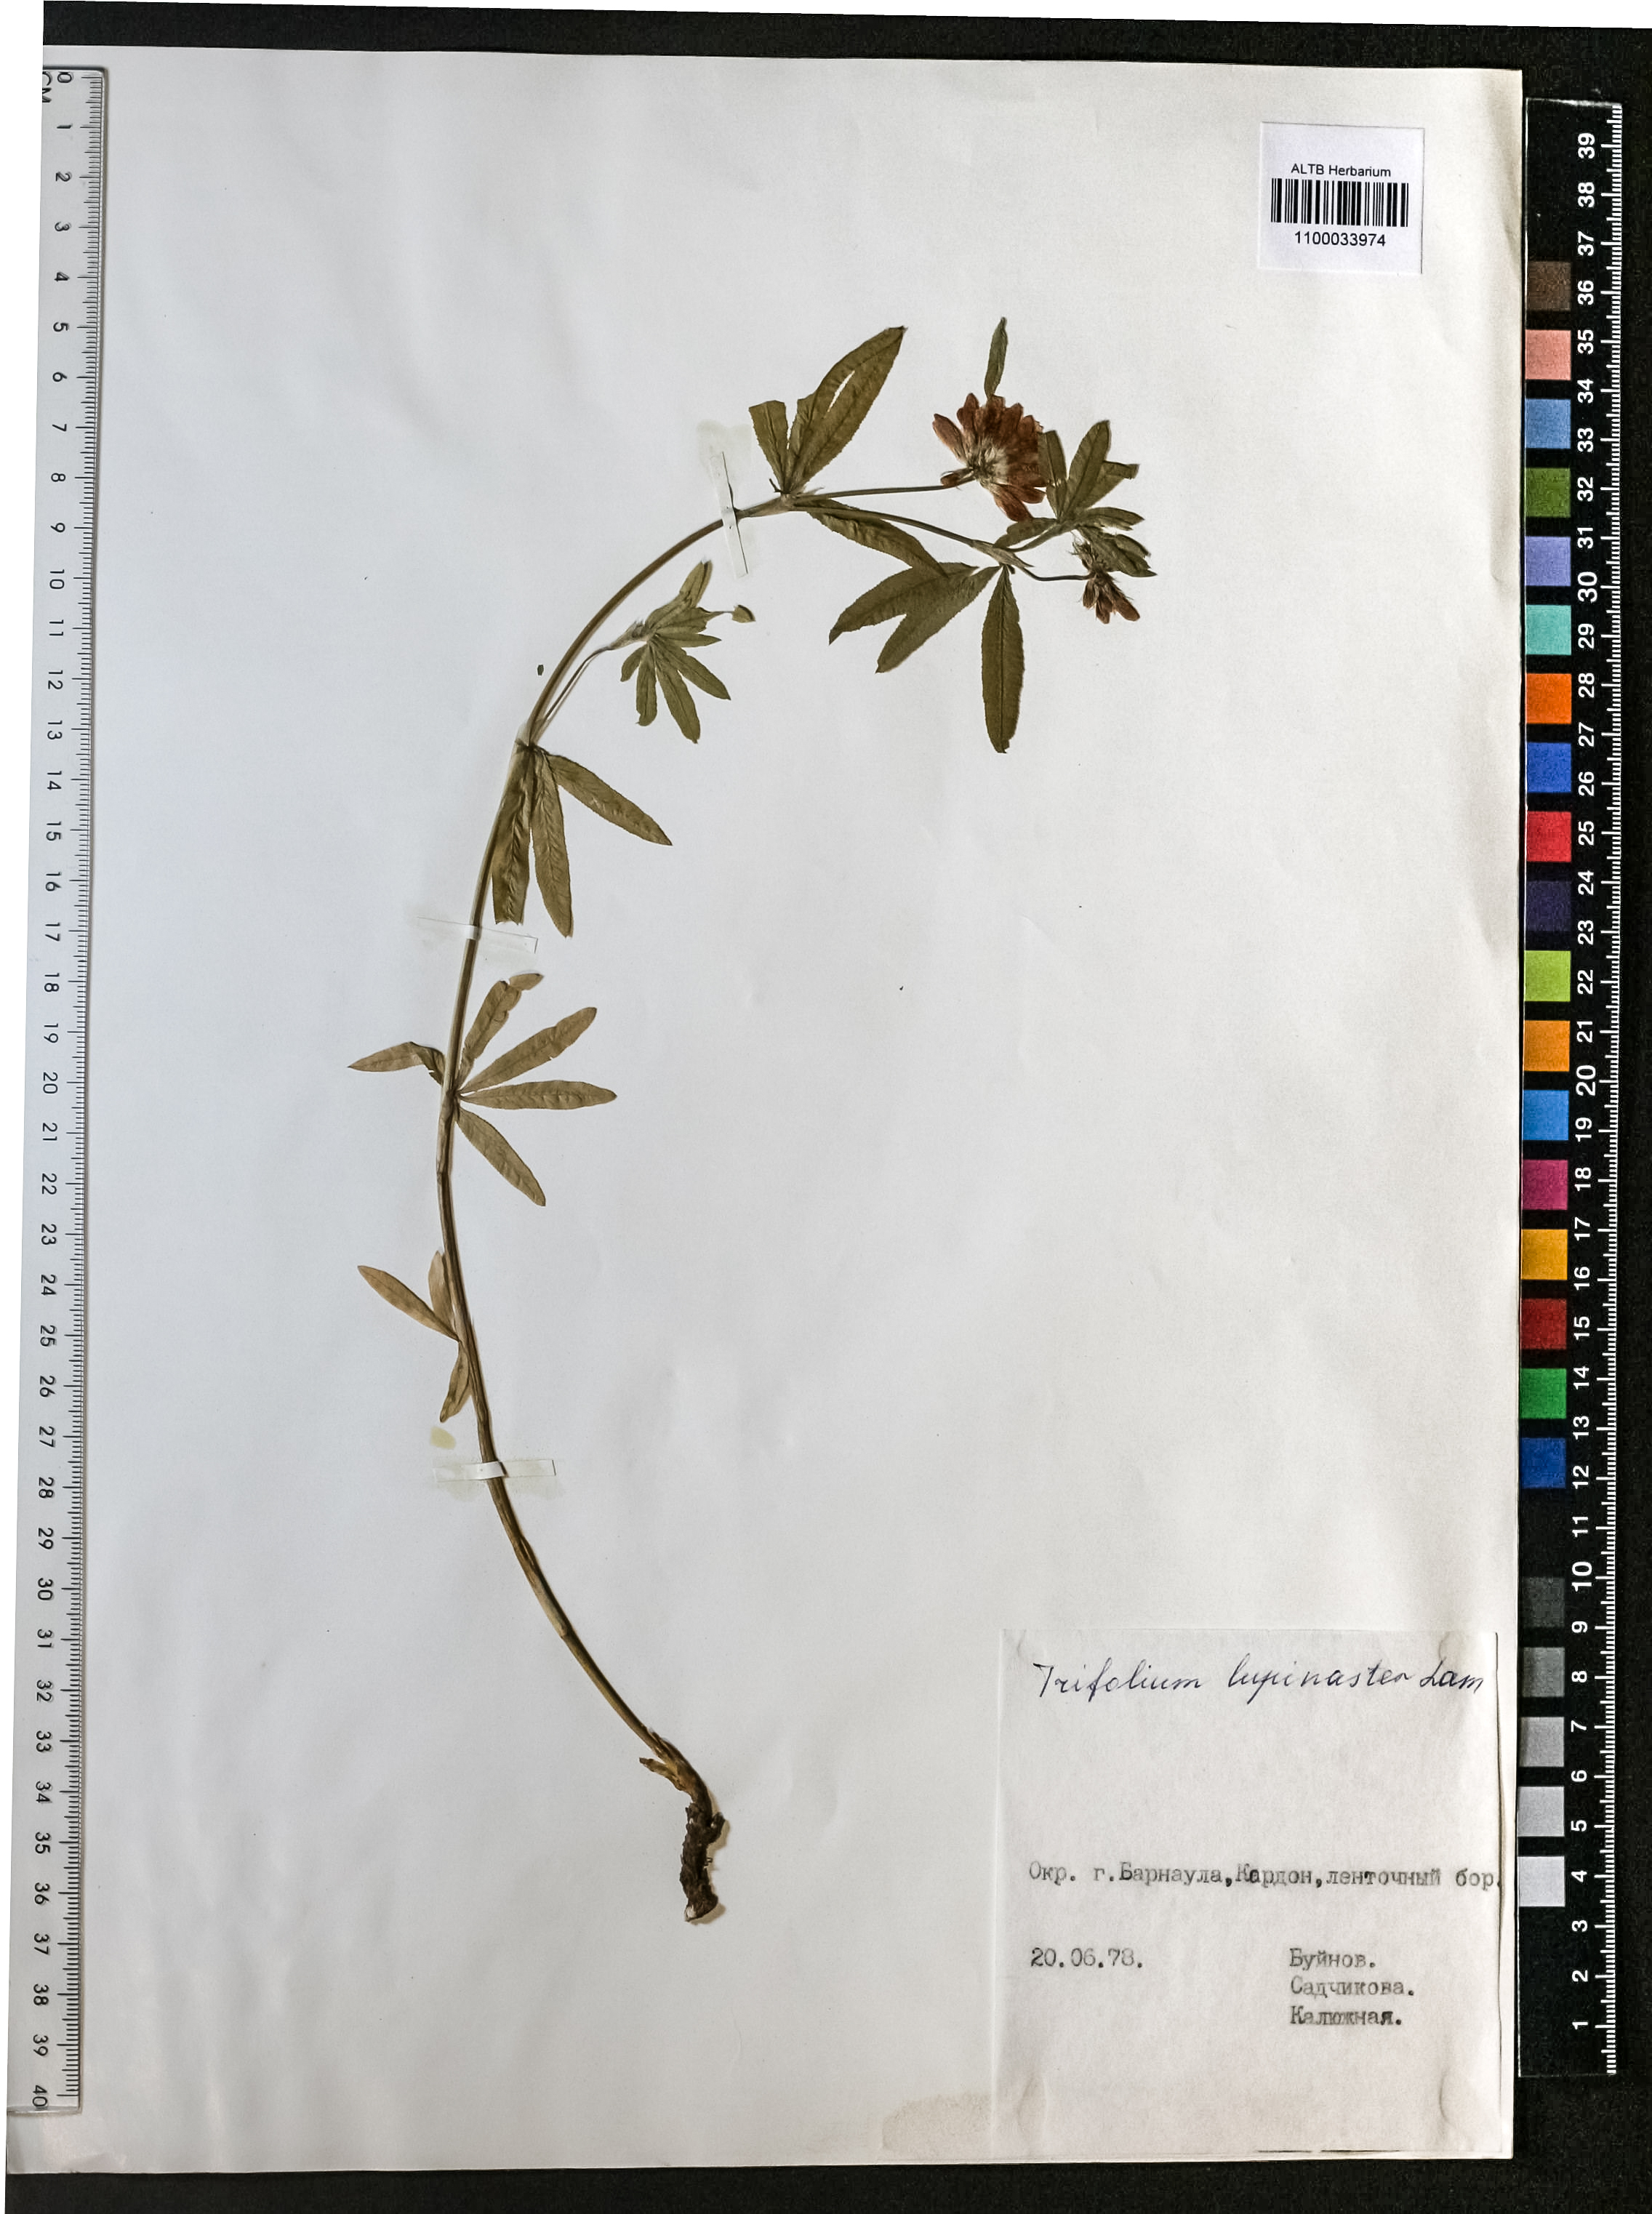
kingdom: Plantae
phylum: Tracheophyta
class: Magnoliopsida
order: Fabales
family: Fabaceae
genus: Trifolium
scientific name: Trifolium lupinaster
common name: Lupine clover
